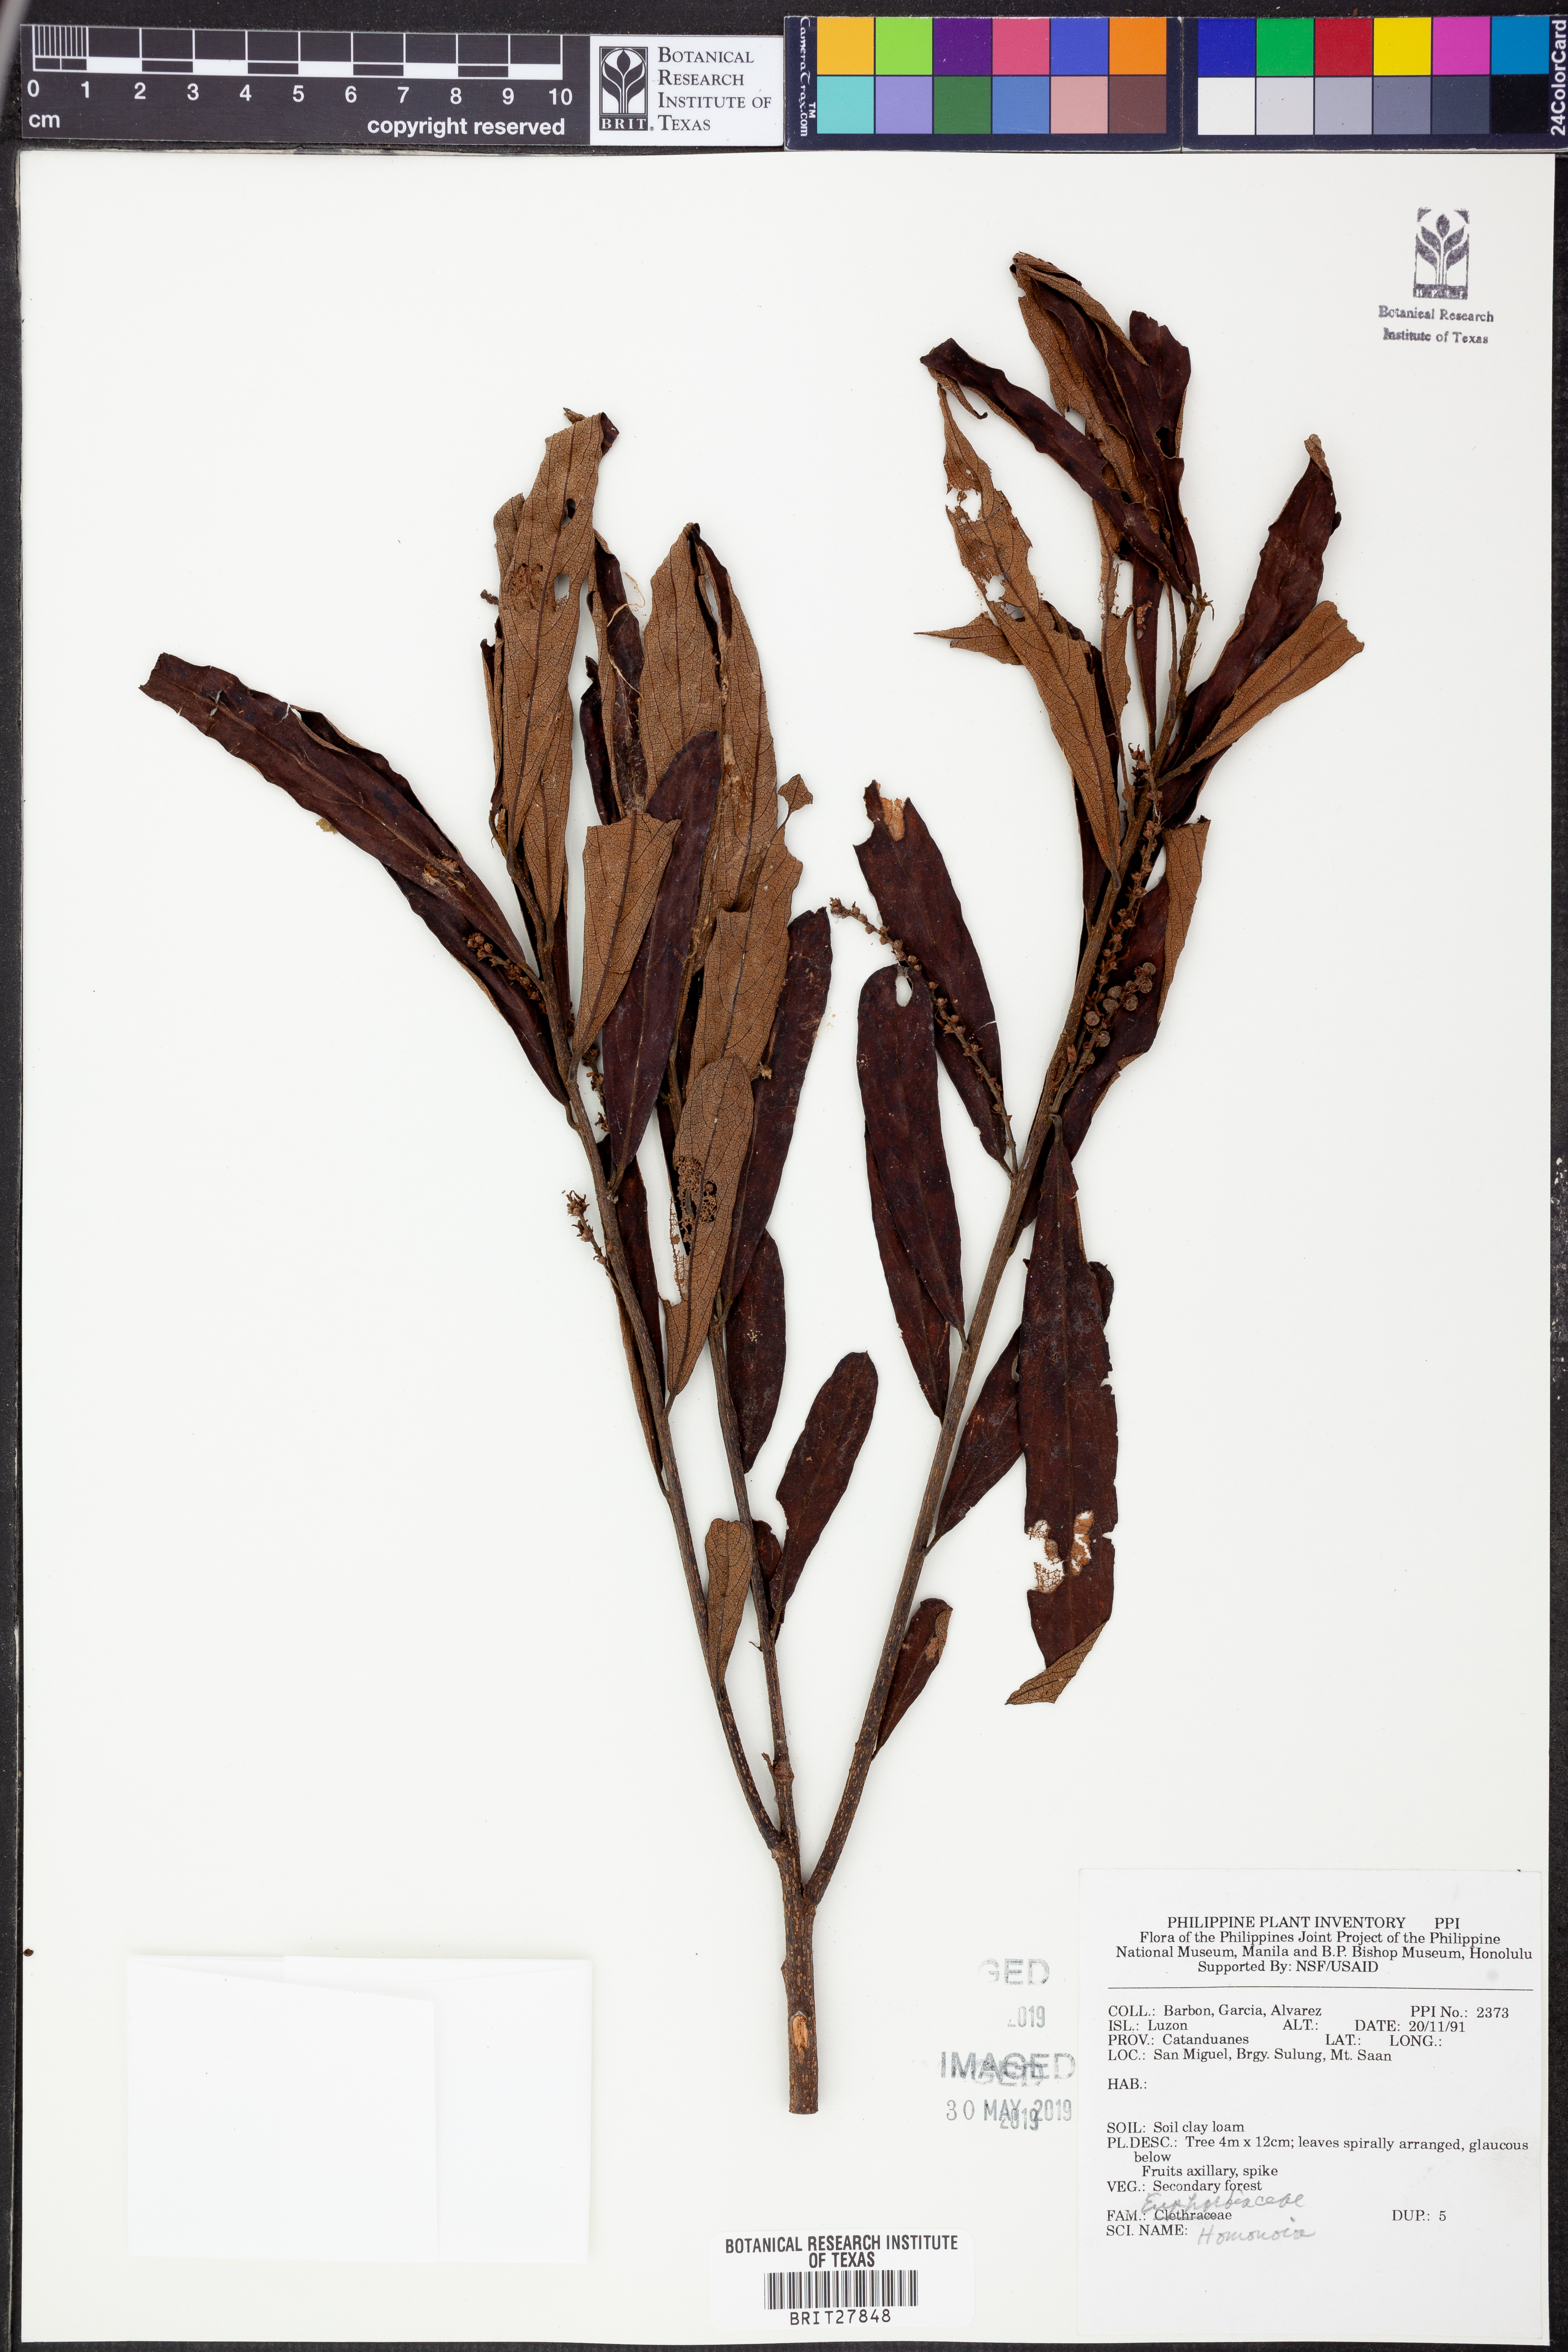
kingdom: Plantae
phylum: Tracheophyta
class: Magnoliopsida
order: Malpighiales
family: Euphorbiaceae
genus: Homonoia
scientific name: Homonoia
